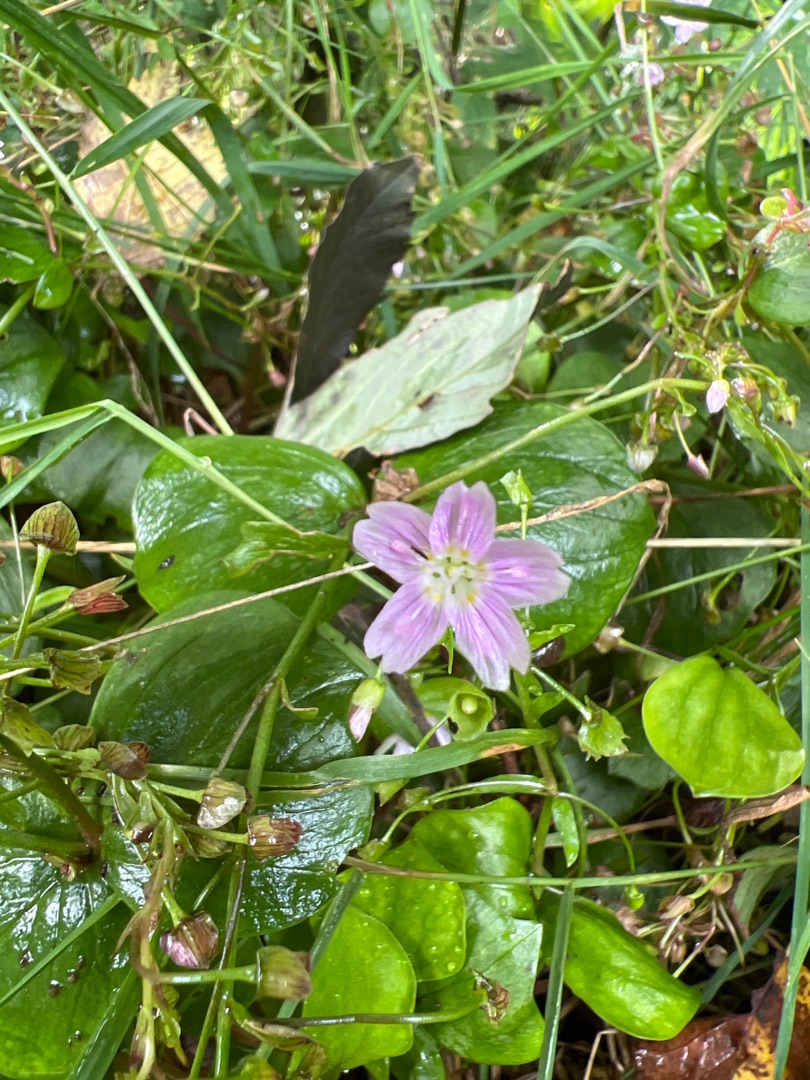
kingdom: Plantae
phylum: Tracheophyta
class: Magnoliopsida
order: Caryophyllales
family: Montiaceae
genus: Claytonia
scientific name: Claytonia sibirica
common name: Sibirisk vinterportulak
